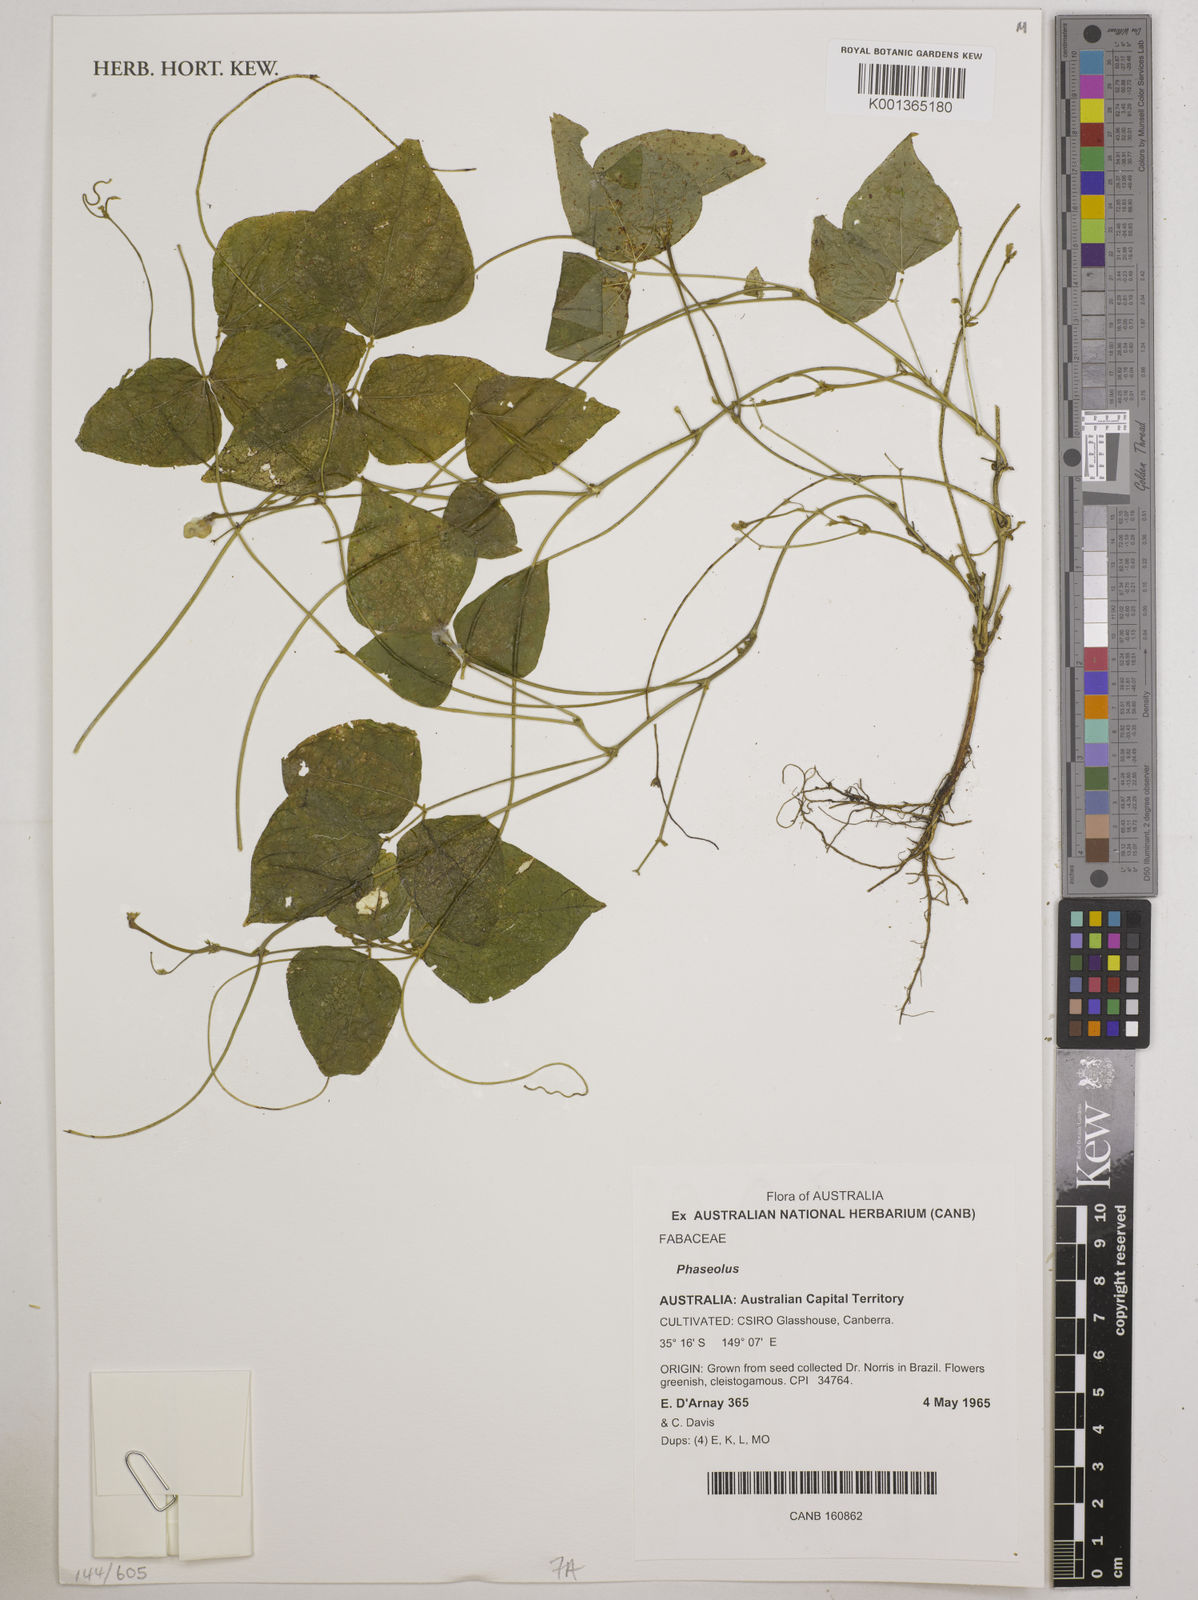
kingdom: Plantae
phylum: Tracheophyta
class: Magnoliopsida
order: Fabales
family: Fabaceae
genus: Phaseolus
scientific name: Phaseolus
